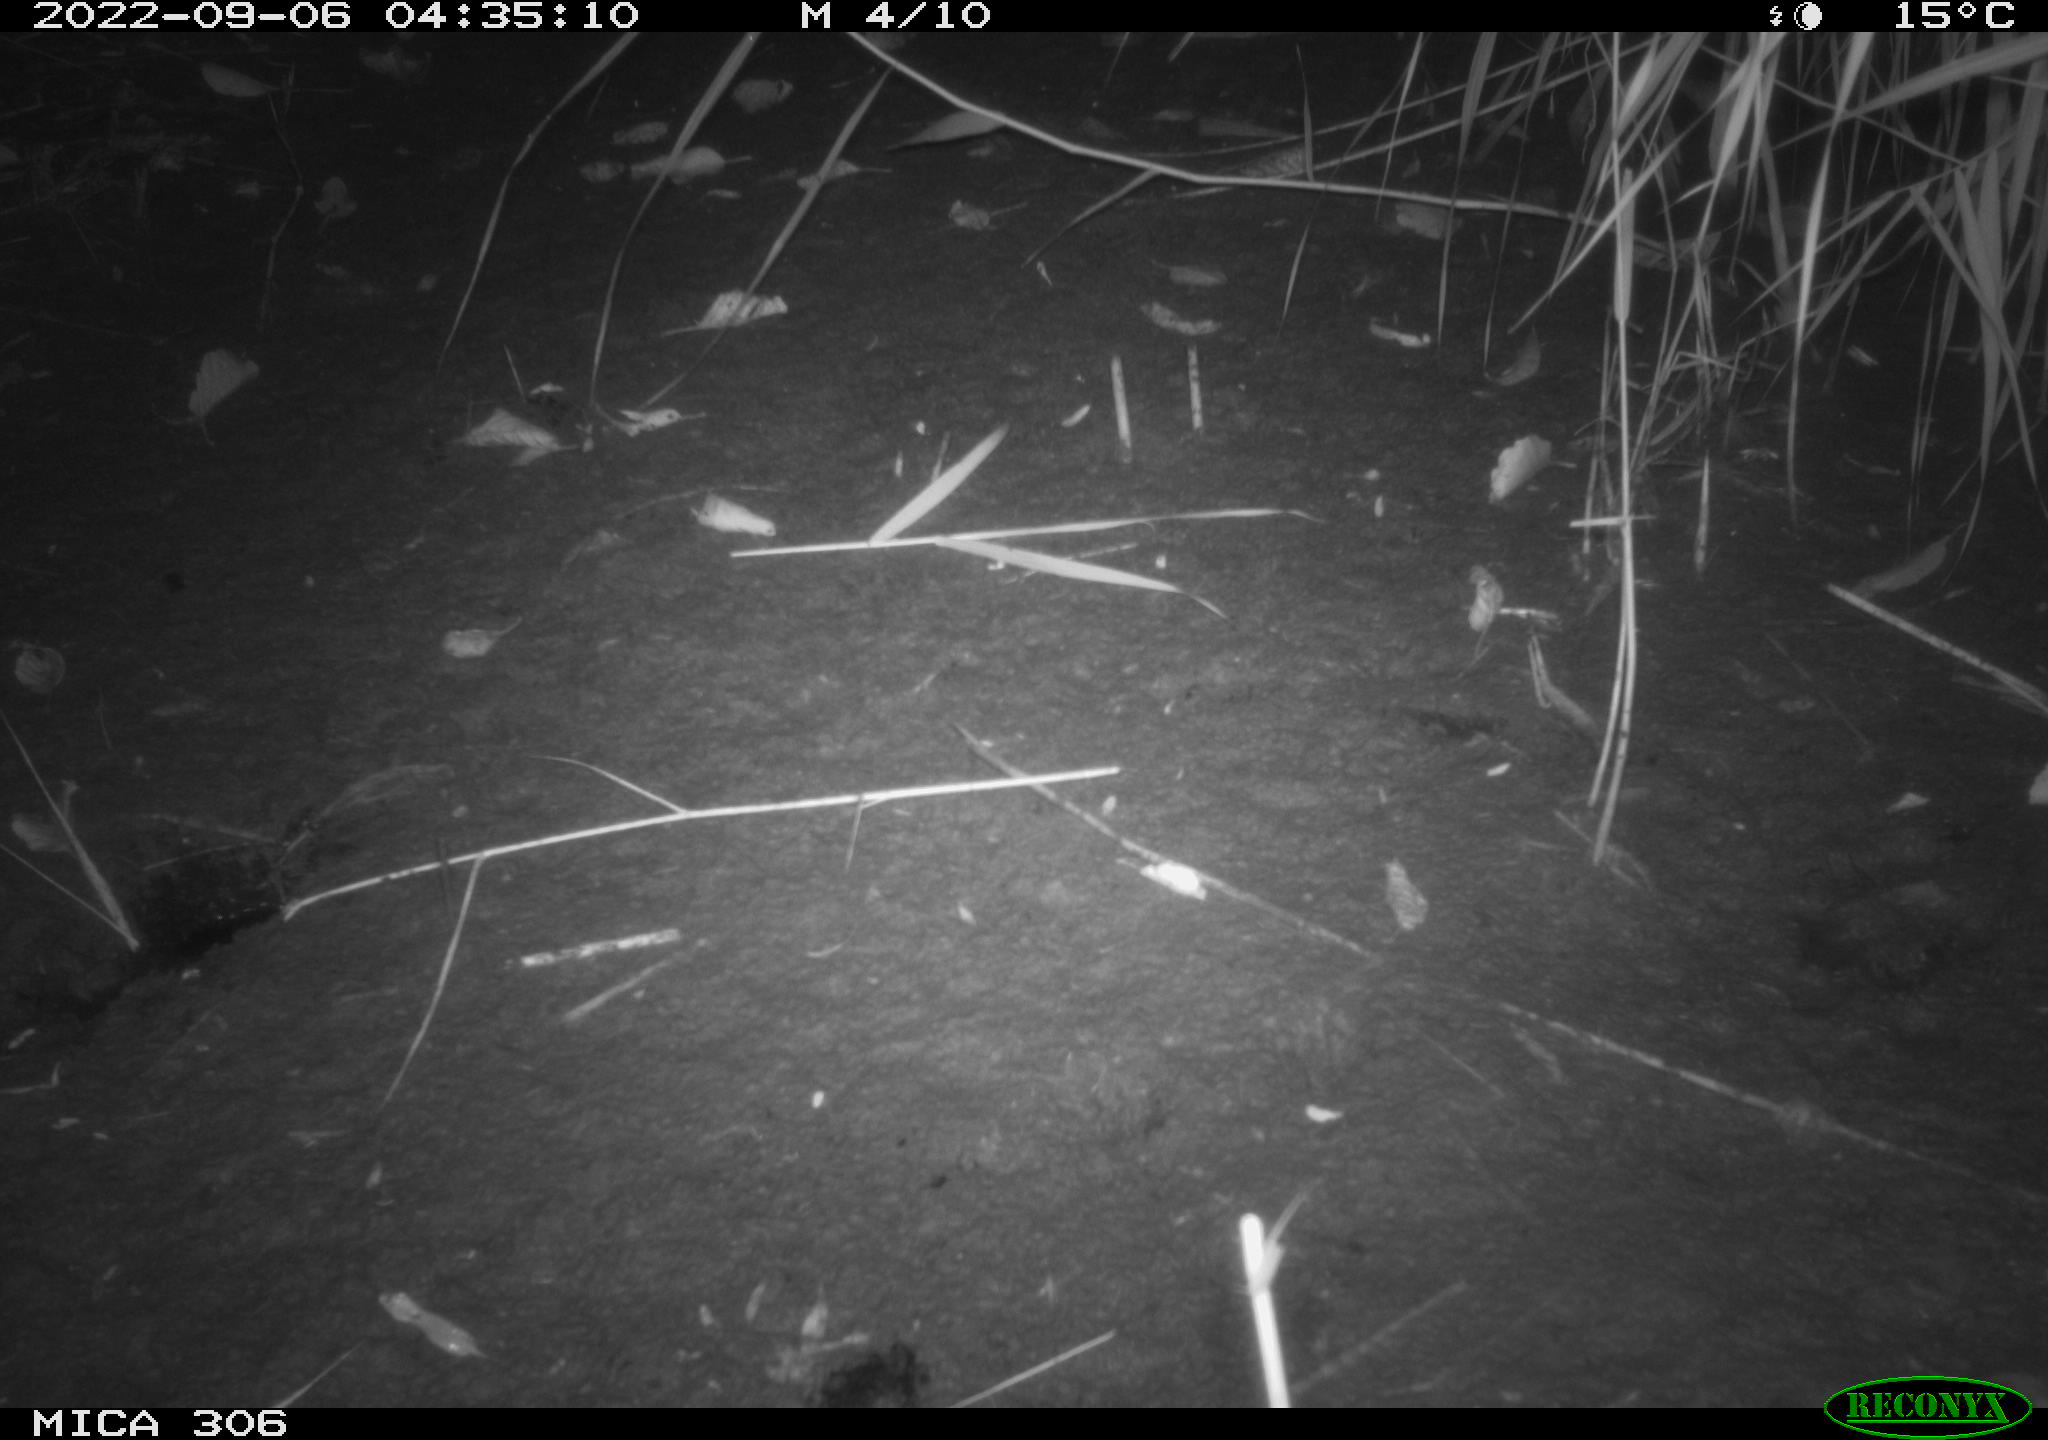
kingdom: Animalia
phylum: Chordata
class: Mammalia
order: Rodentia
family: Muridae
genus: Rattus
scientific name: Rattus norvegicus
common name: Brown rat
